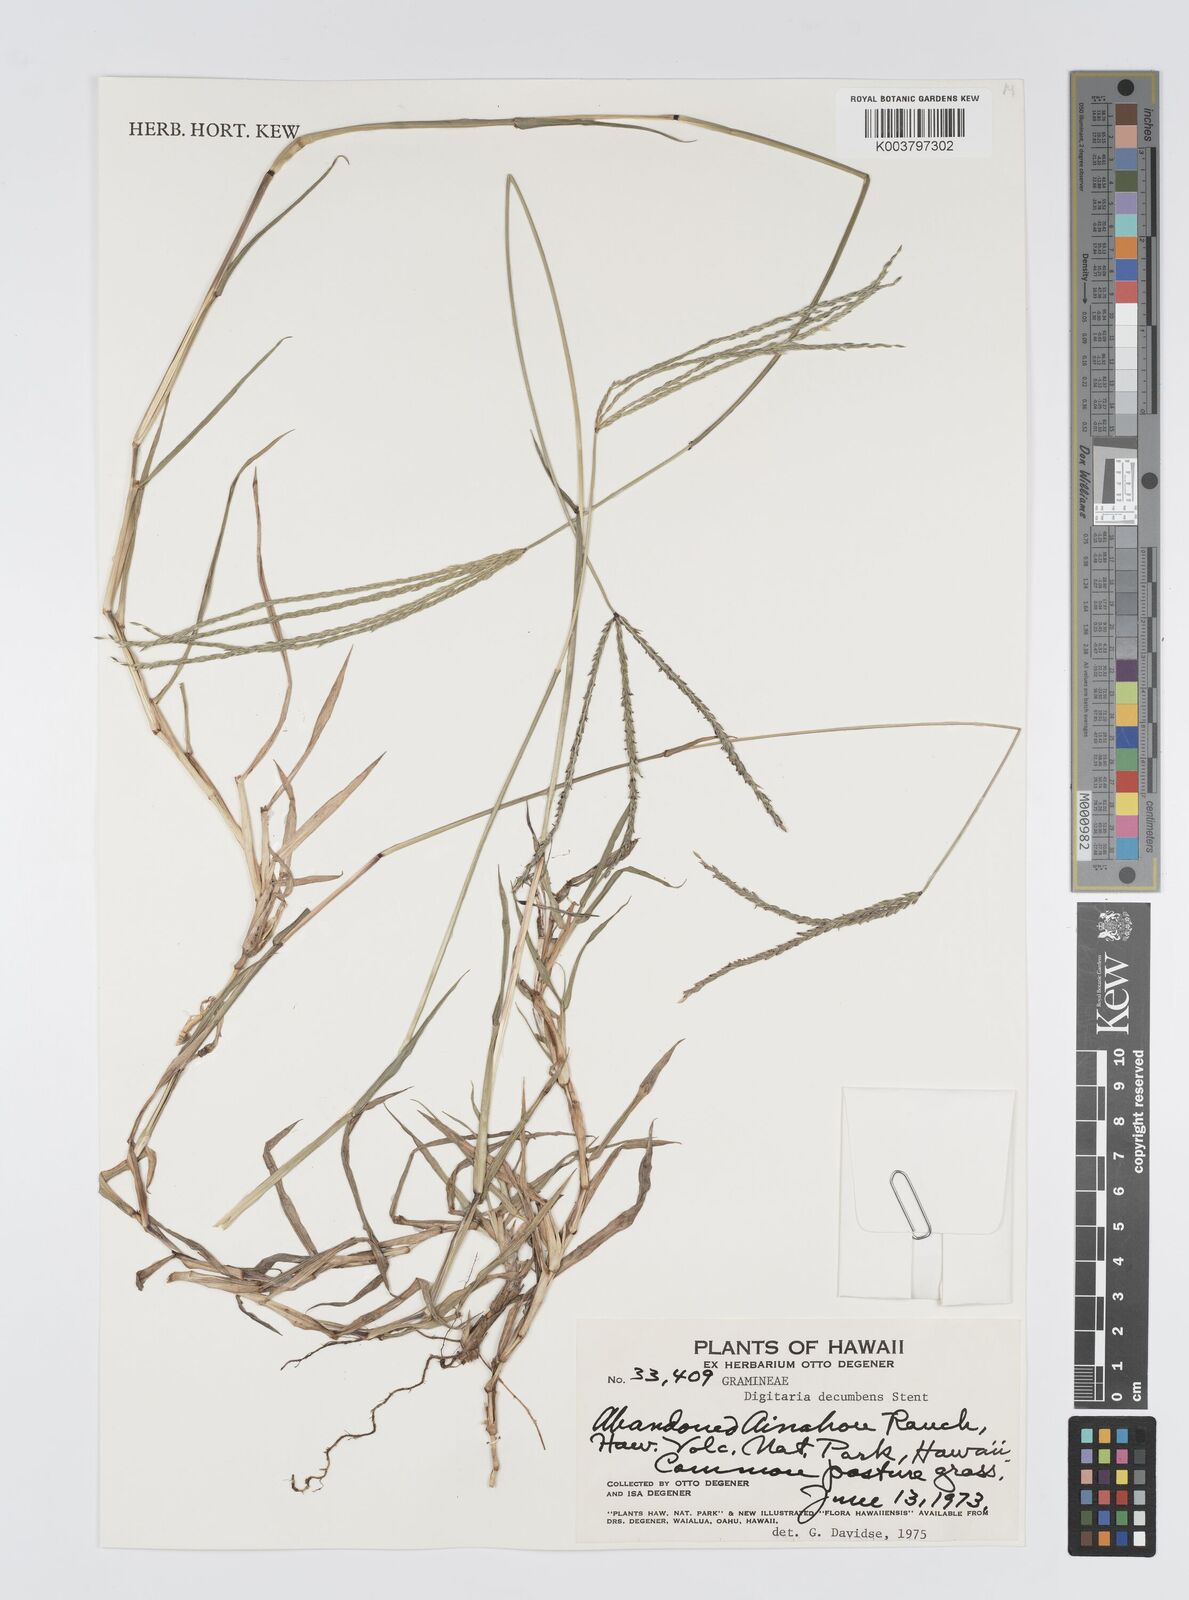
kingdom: Plantae
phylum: Tracheophyta
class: Liliopsida
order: Poales
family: Poaceae
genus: Digitaria
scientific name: Digitaria eriantha
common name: Digitgrass
